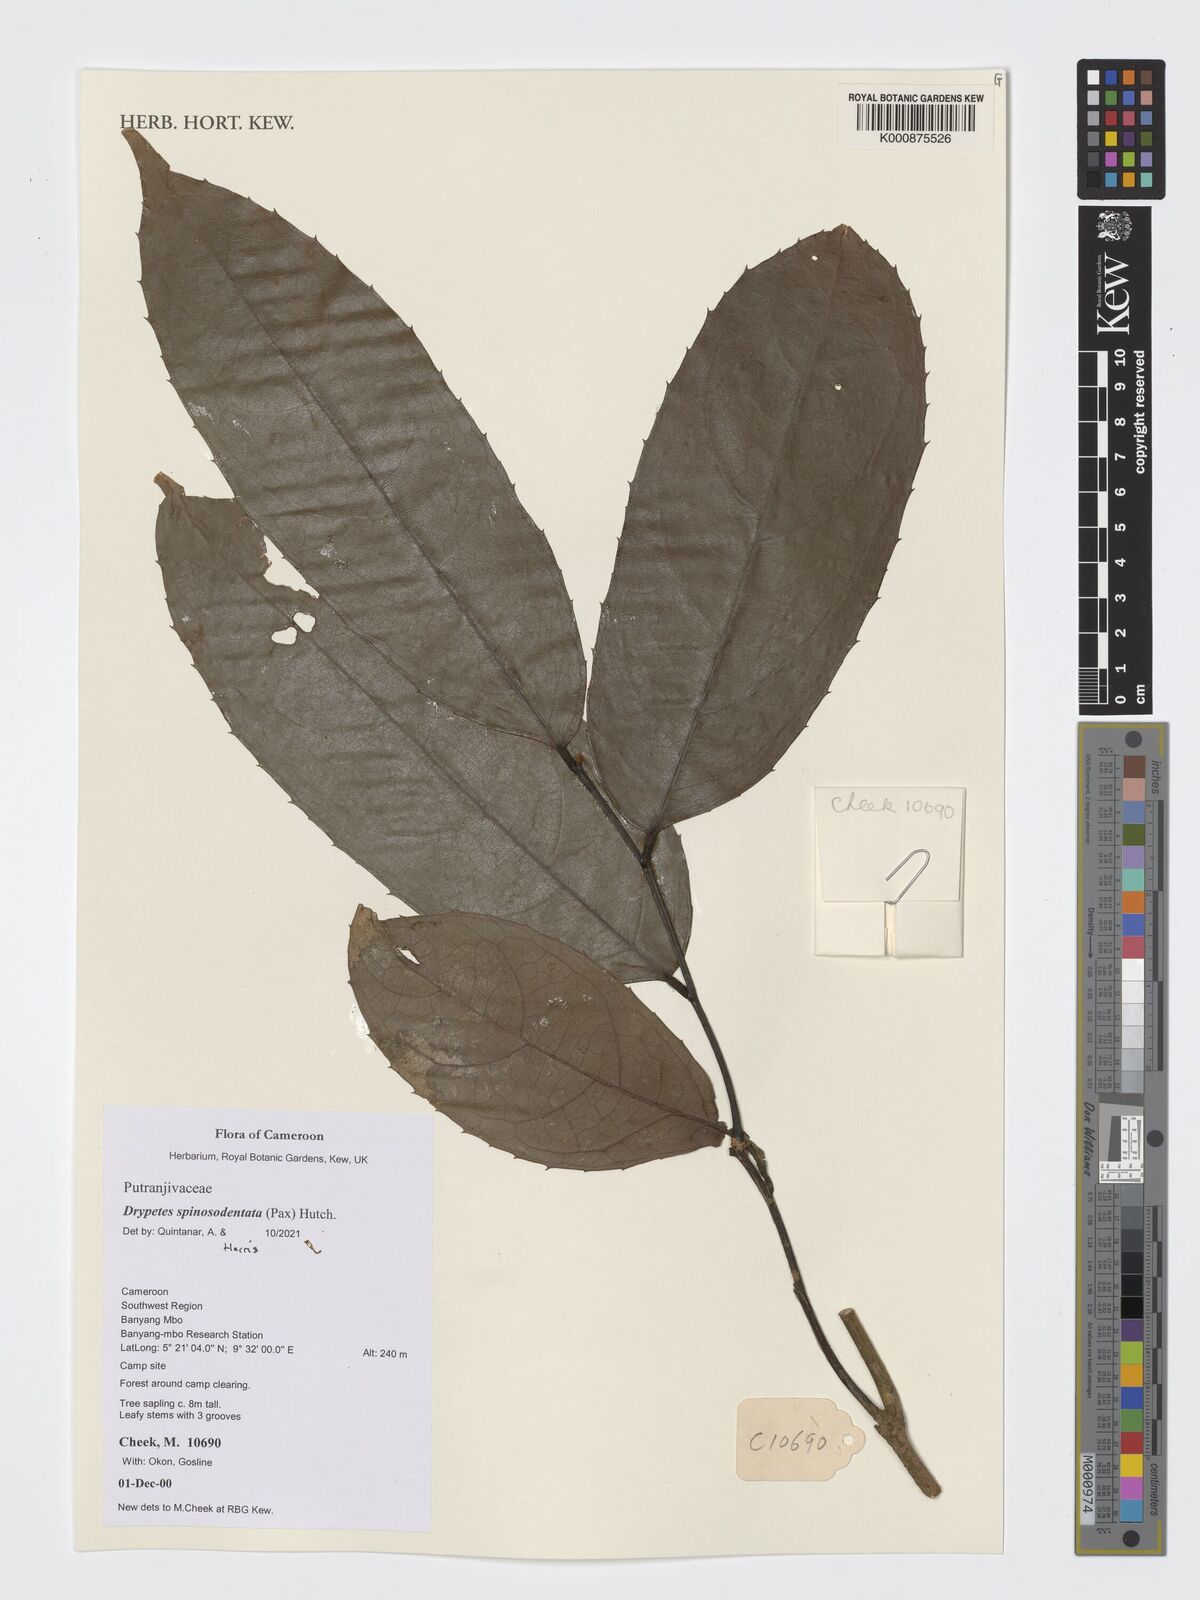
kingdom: Plantae
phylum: Tracheophyta
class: Magnoliopsida
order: Malpighiales
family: Putranjivaceae
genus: Drypetes
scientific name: Drypetes spinosodentata
